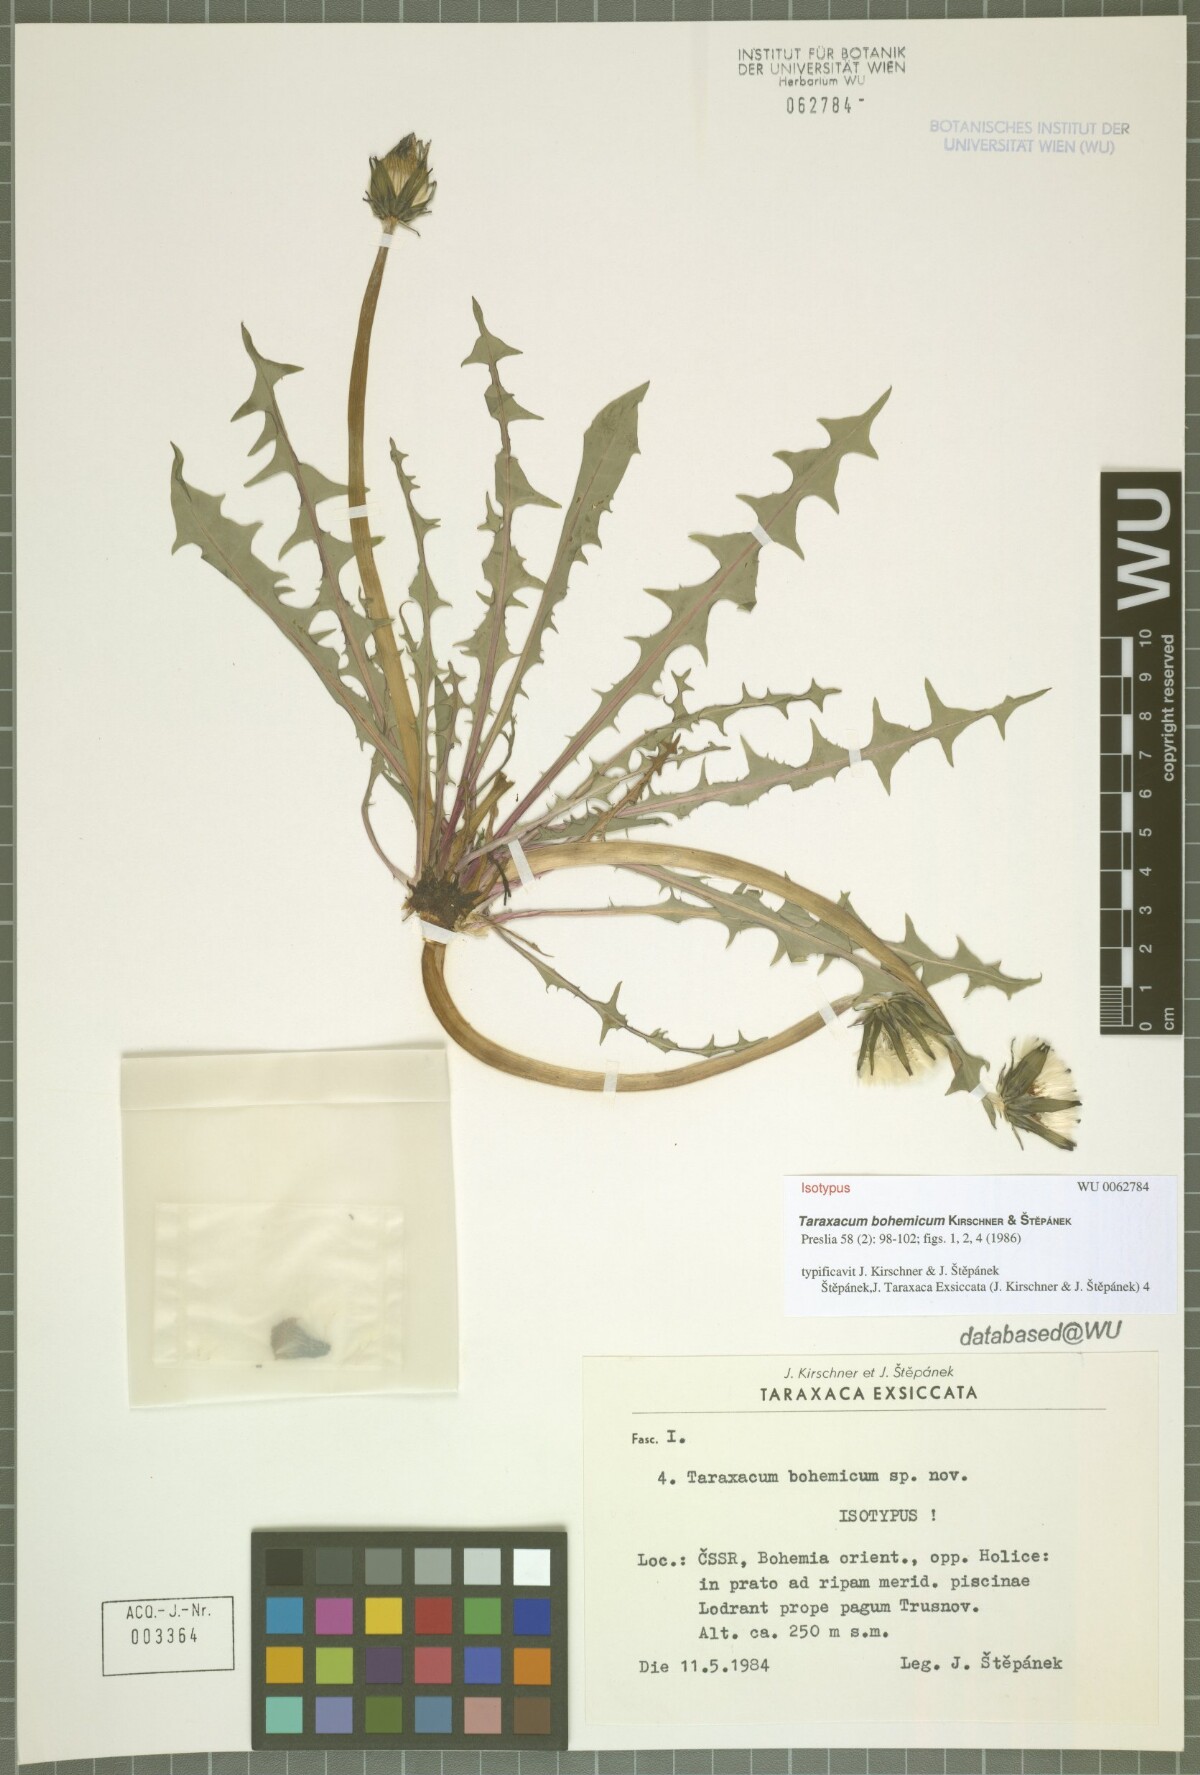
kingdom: Plantae
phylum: Tracheophyta
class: Magnoliopsida
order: Asterales
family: Asteraceae
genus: Taraxacum
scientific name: Taraxacum bohemicum
